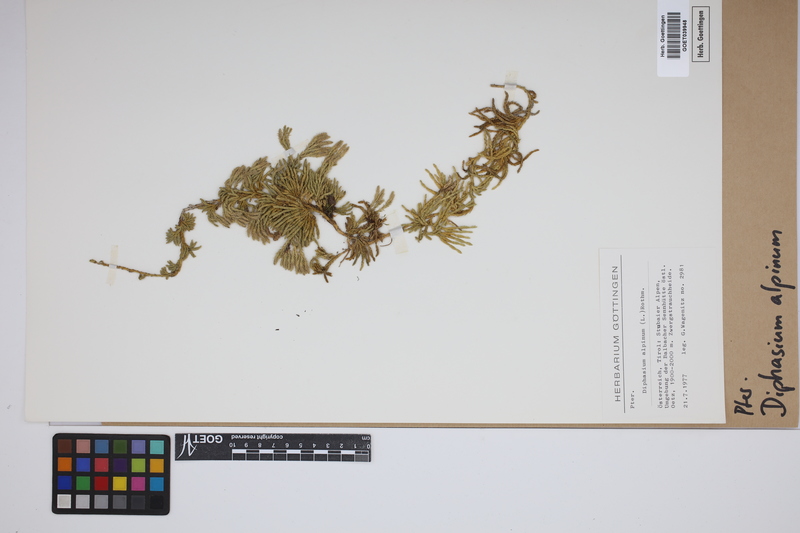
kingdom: Plantae
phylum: Tracheophyta
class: Lycopodiopsida
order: Lycopodiales
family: Lycopodiaceae
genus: Diphasiastrum
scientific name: Diphasiastrum alpinum
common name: Alpine clubmoss
